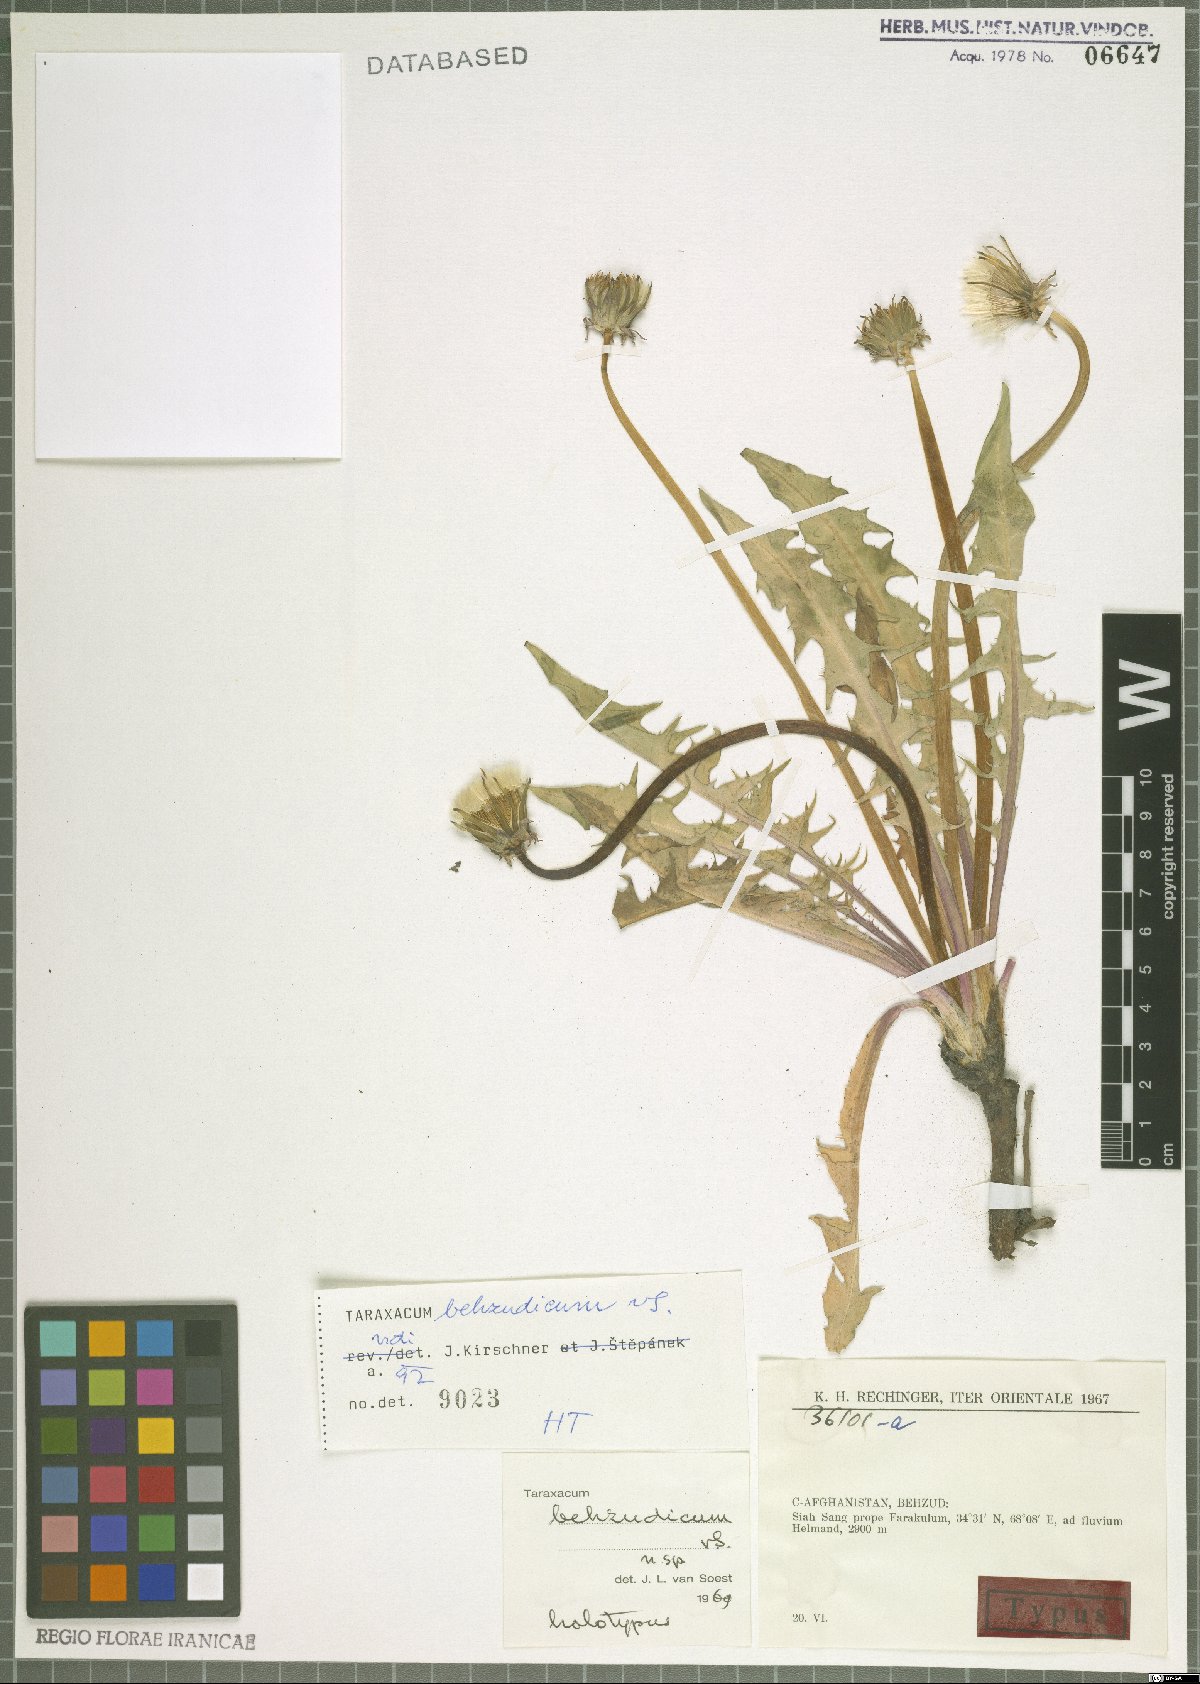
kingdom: Plantae
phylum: Tracheophyta
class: Magnoliopsida
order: Asterales
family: Asteraceae
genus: Taraxacum
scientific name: Taraxacum behzudicum
